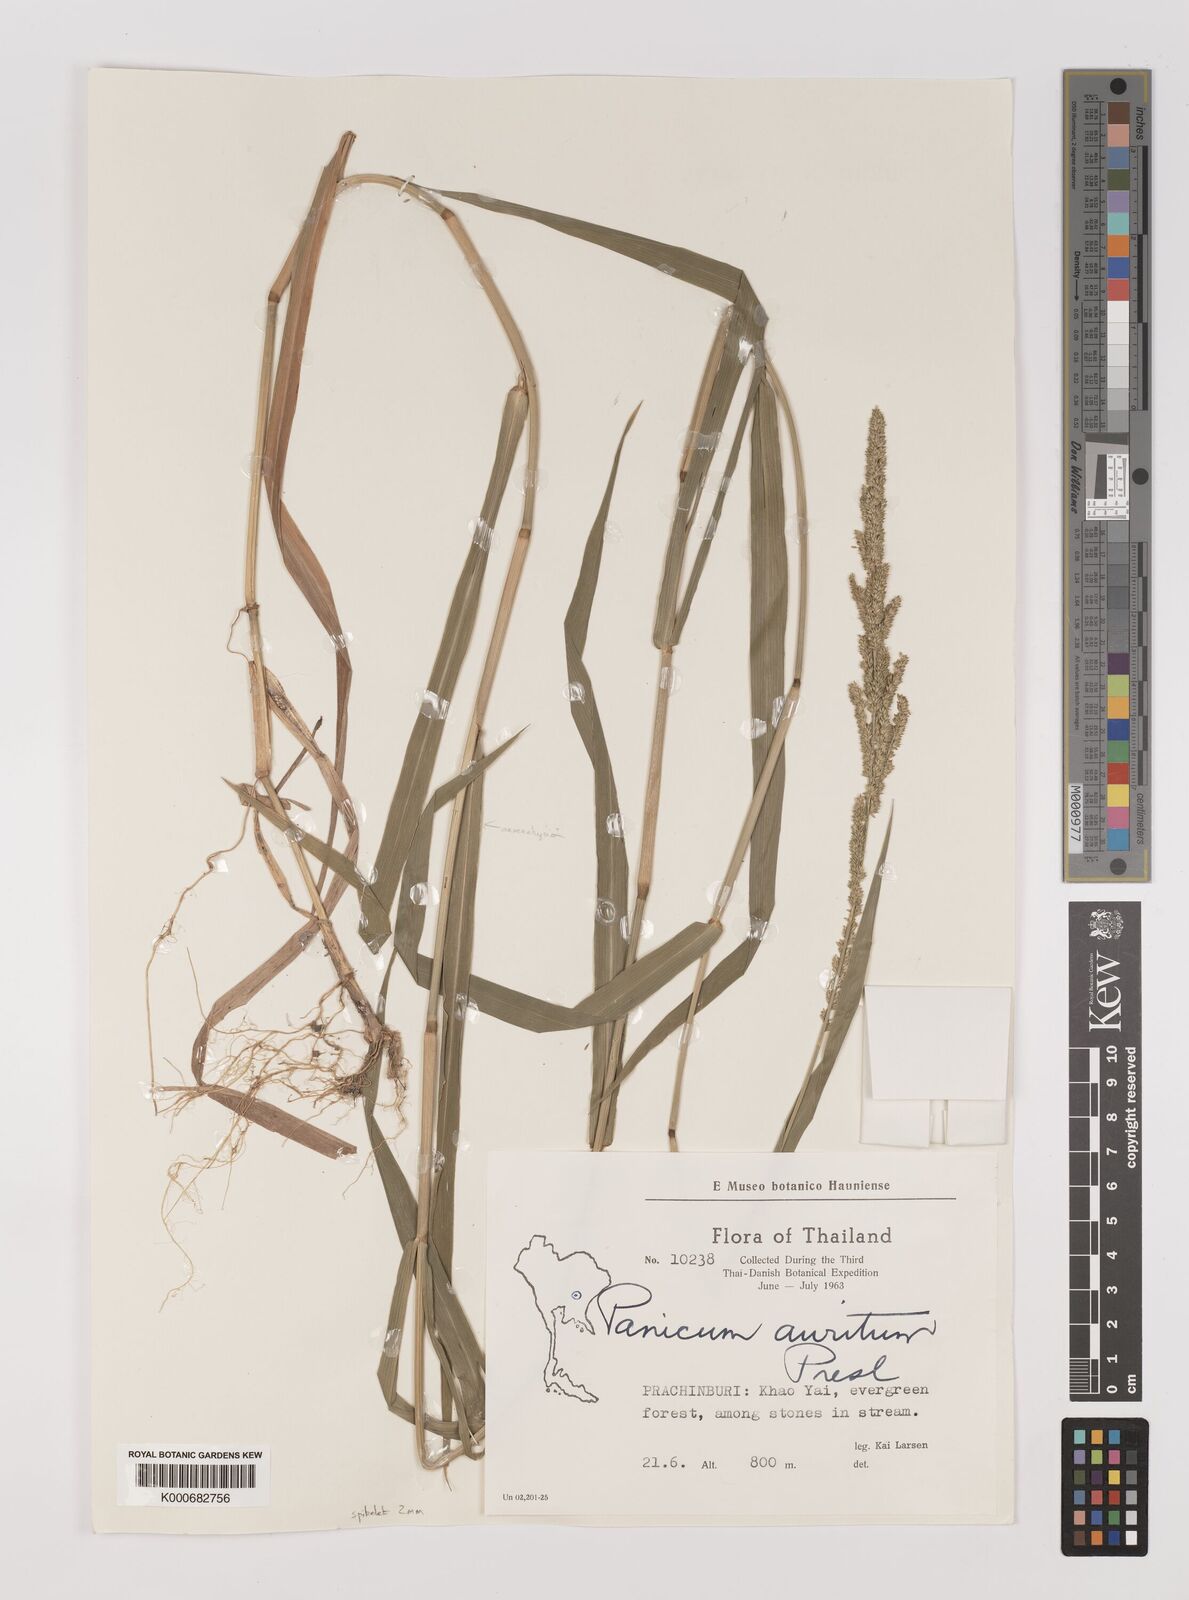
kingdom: Plantae
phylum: Tracheophyta
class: Liliopsida
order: Poales
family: Poaceae
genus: Hymenachne
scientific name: Hymenachne aurita
